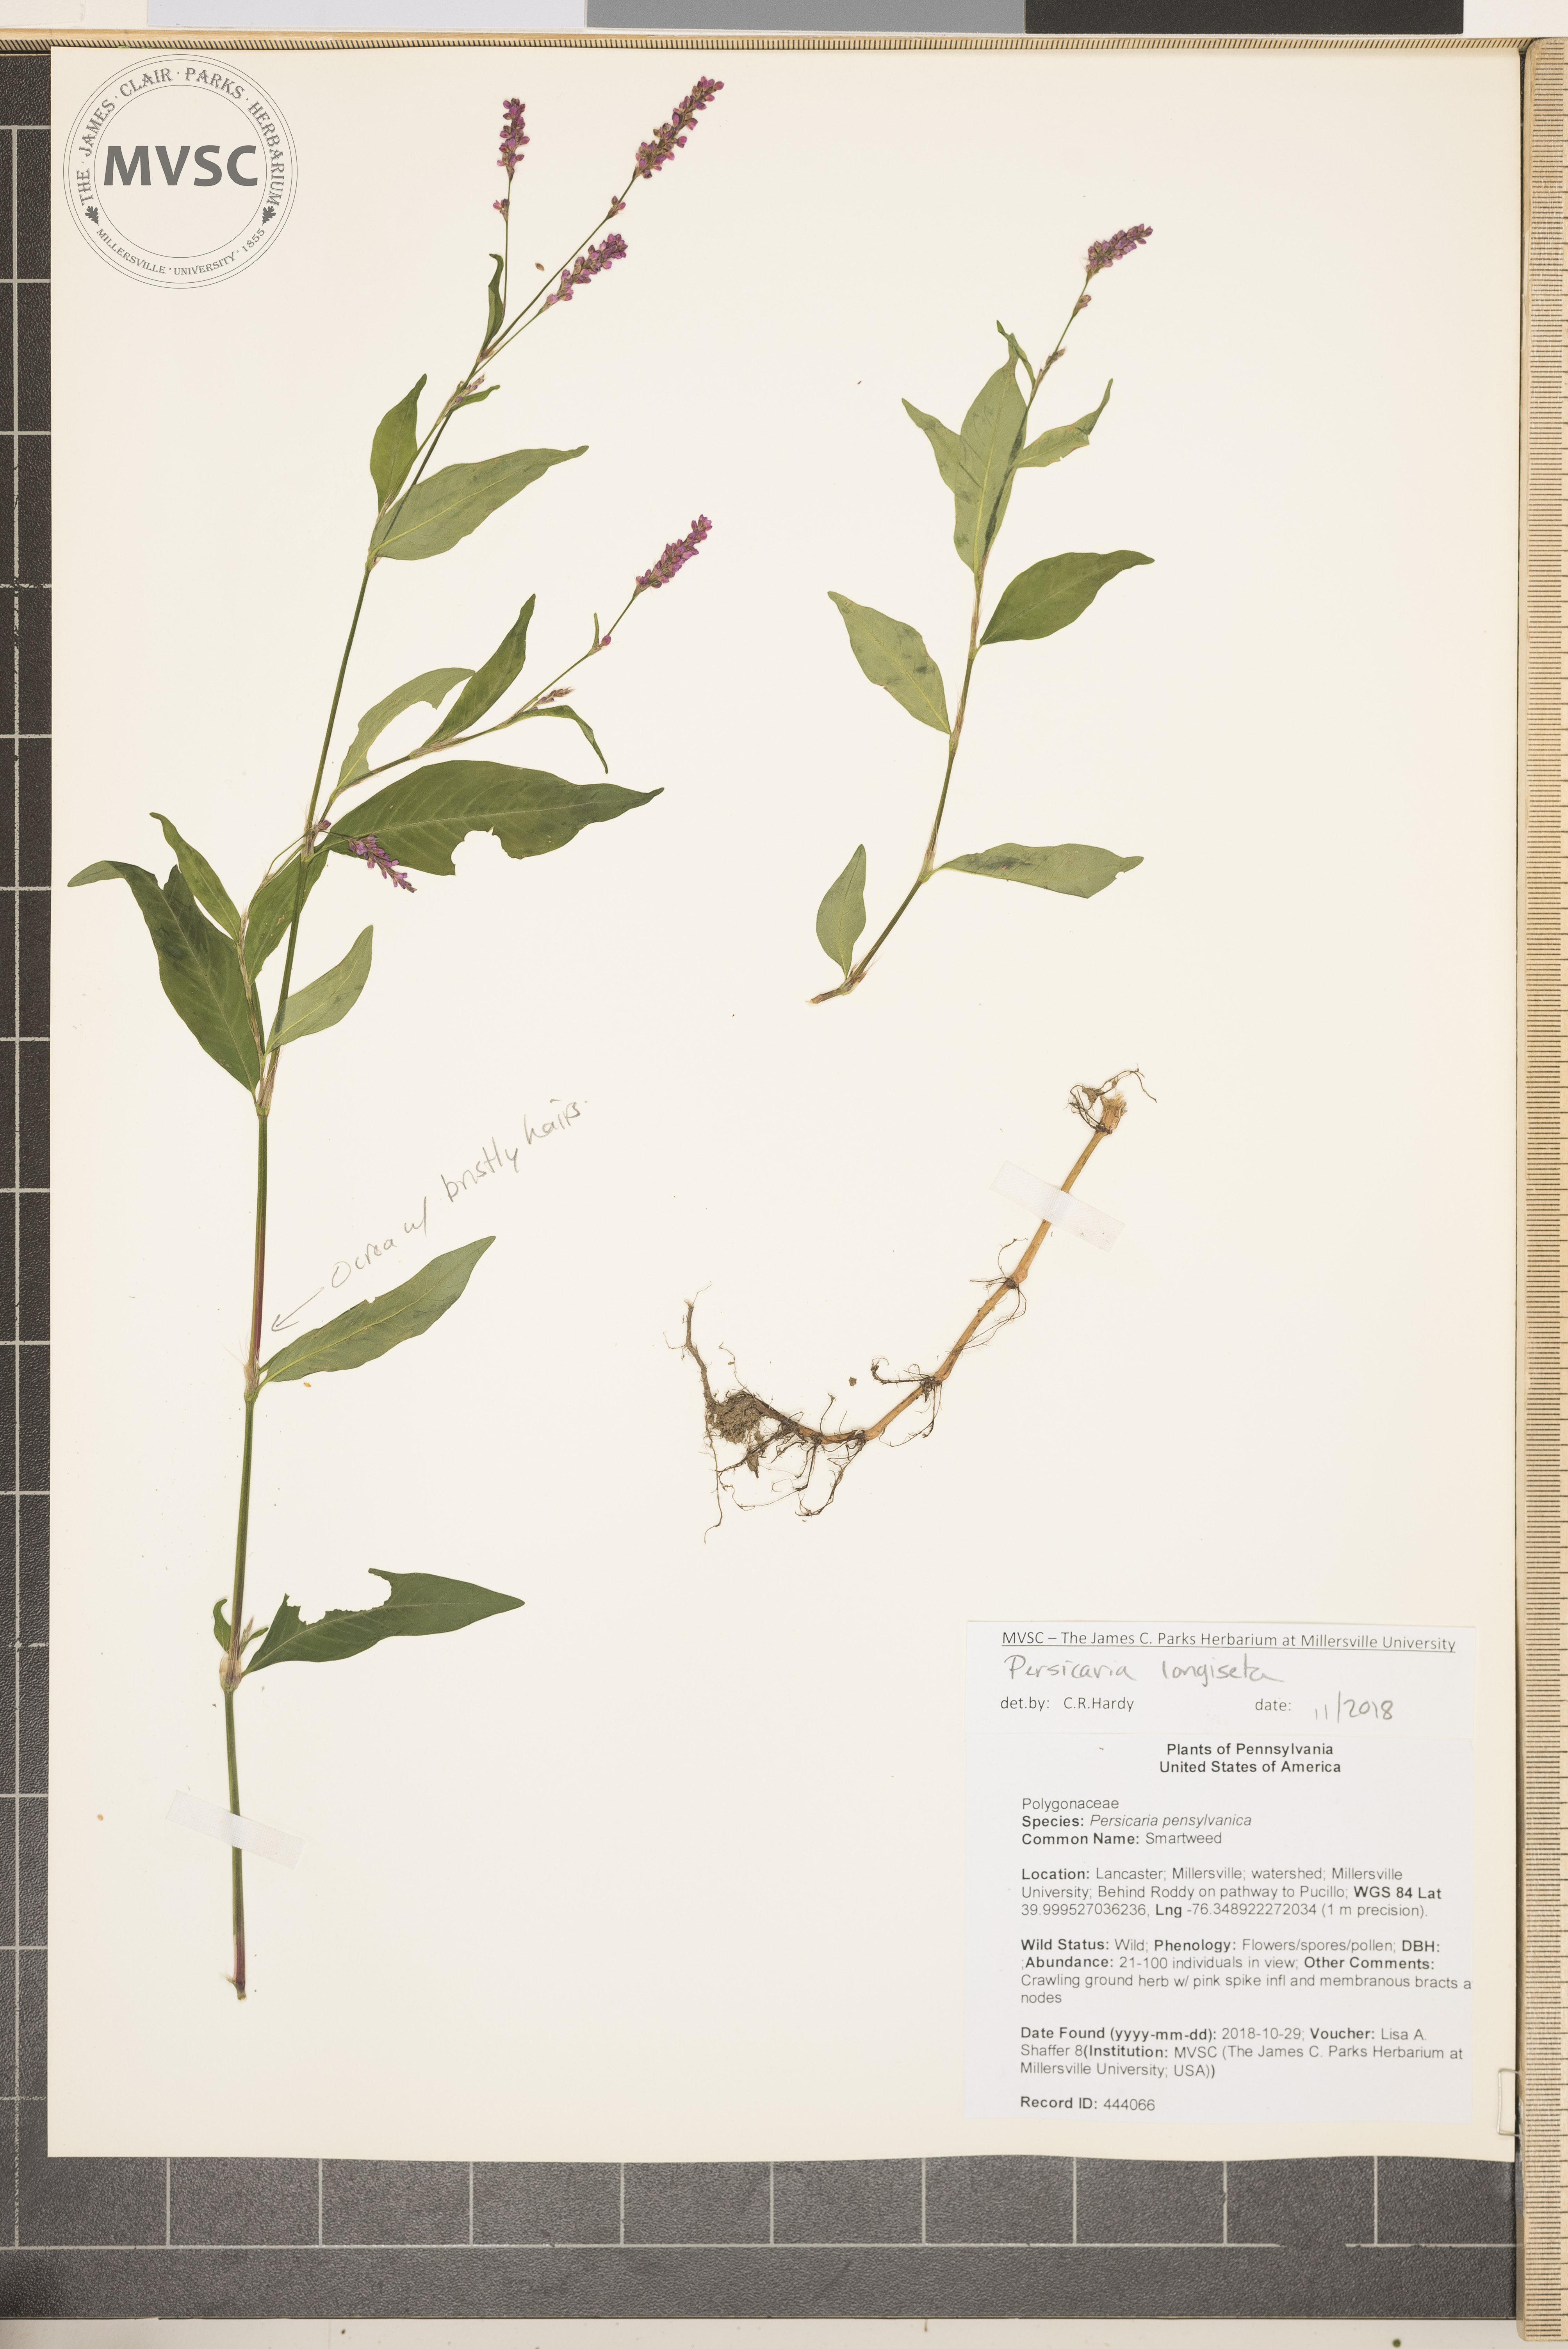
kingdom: Plantae
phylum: Tracheophyta
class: Magnoliopsida
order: Caryophyllales
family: Polygonaceae
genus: Persicaria
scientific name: Persicaria longiseta
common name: Smartweed
